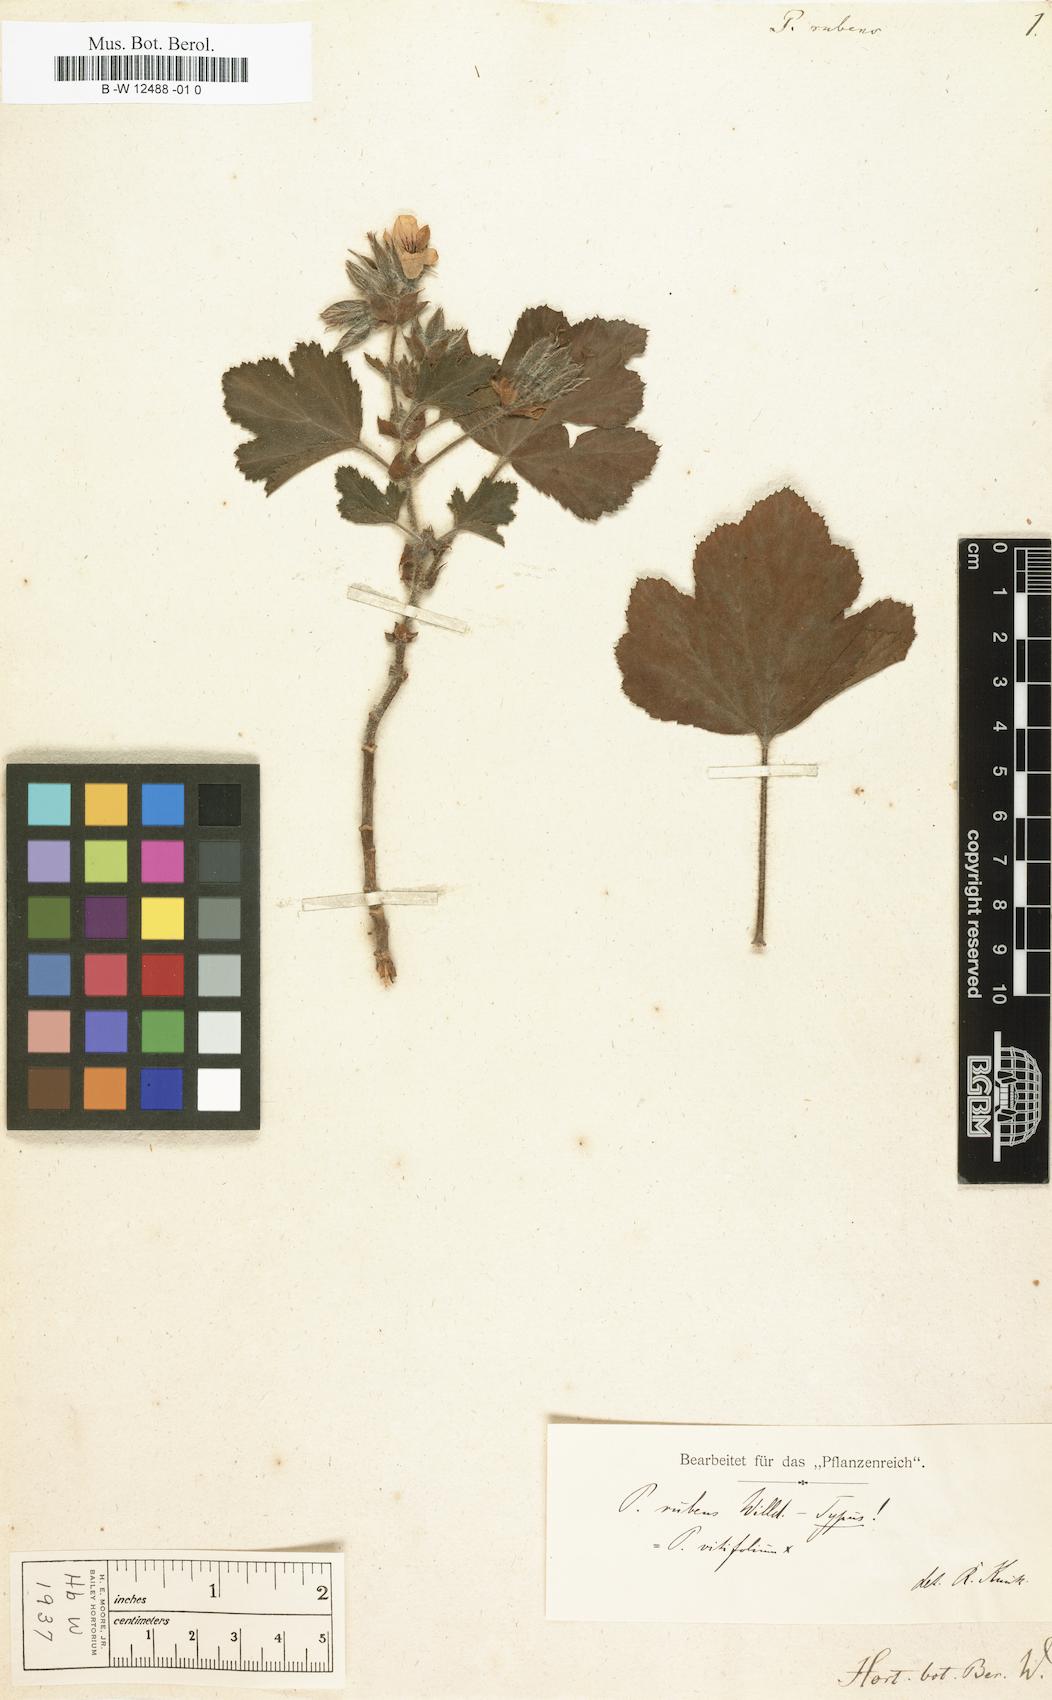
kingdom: Plantae
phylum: Tracheophyta
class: Magnoliopsida
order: Geraniales
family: Geraniaceae
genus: Pelargonium
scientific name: Pelargonium rubens
